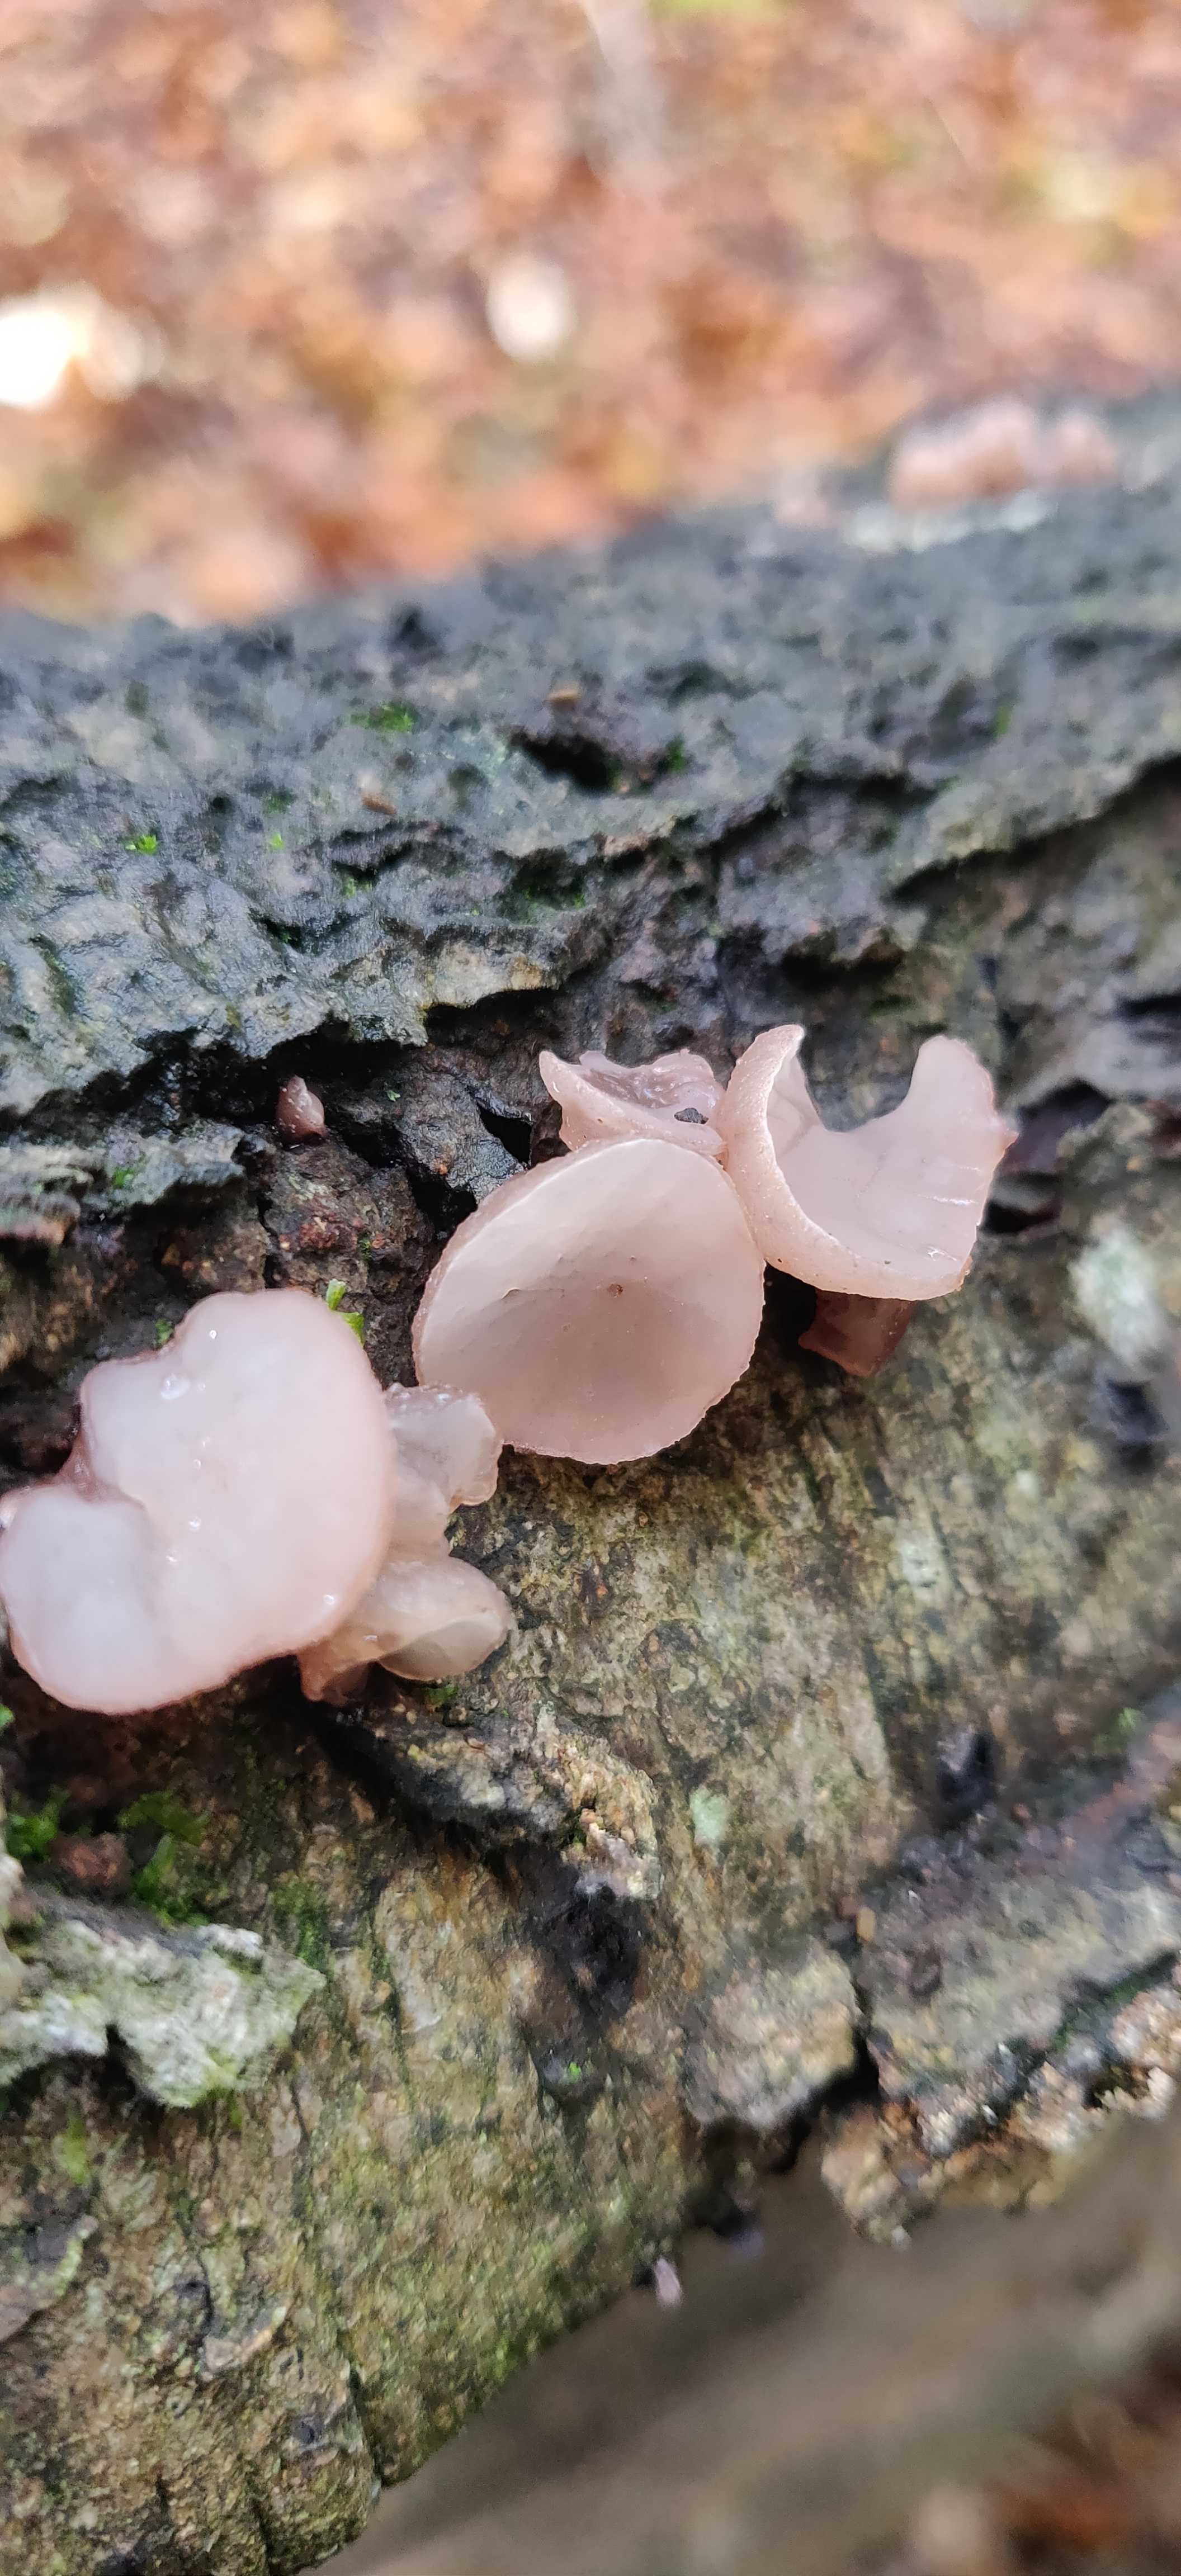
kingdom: Fungi
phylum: Ascomycota
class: Leotiomycetes
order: Helotiales
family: Gelatinodiscaceae
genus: Neobulgaria
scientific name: Neobulgaria pura
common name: bleg bævreskive
